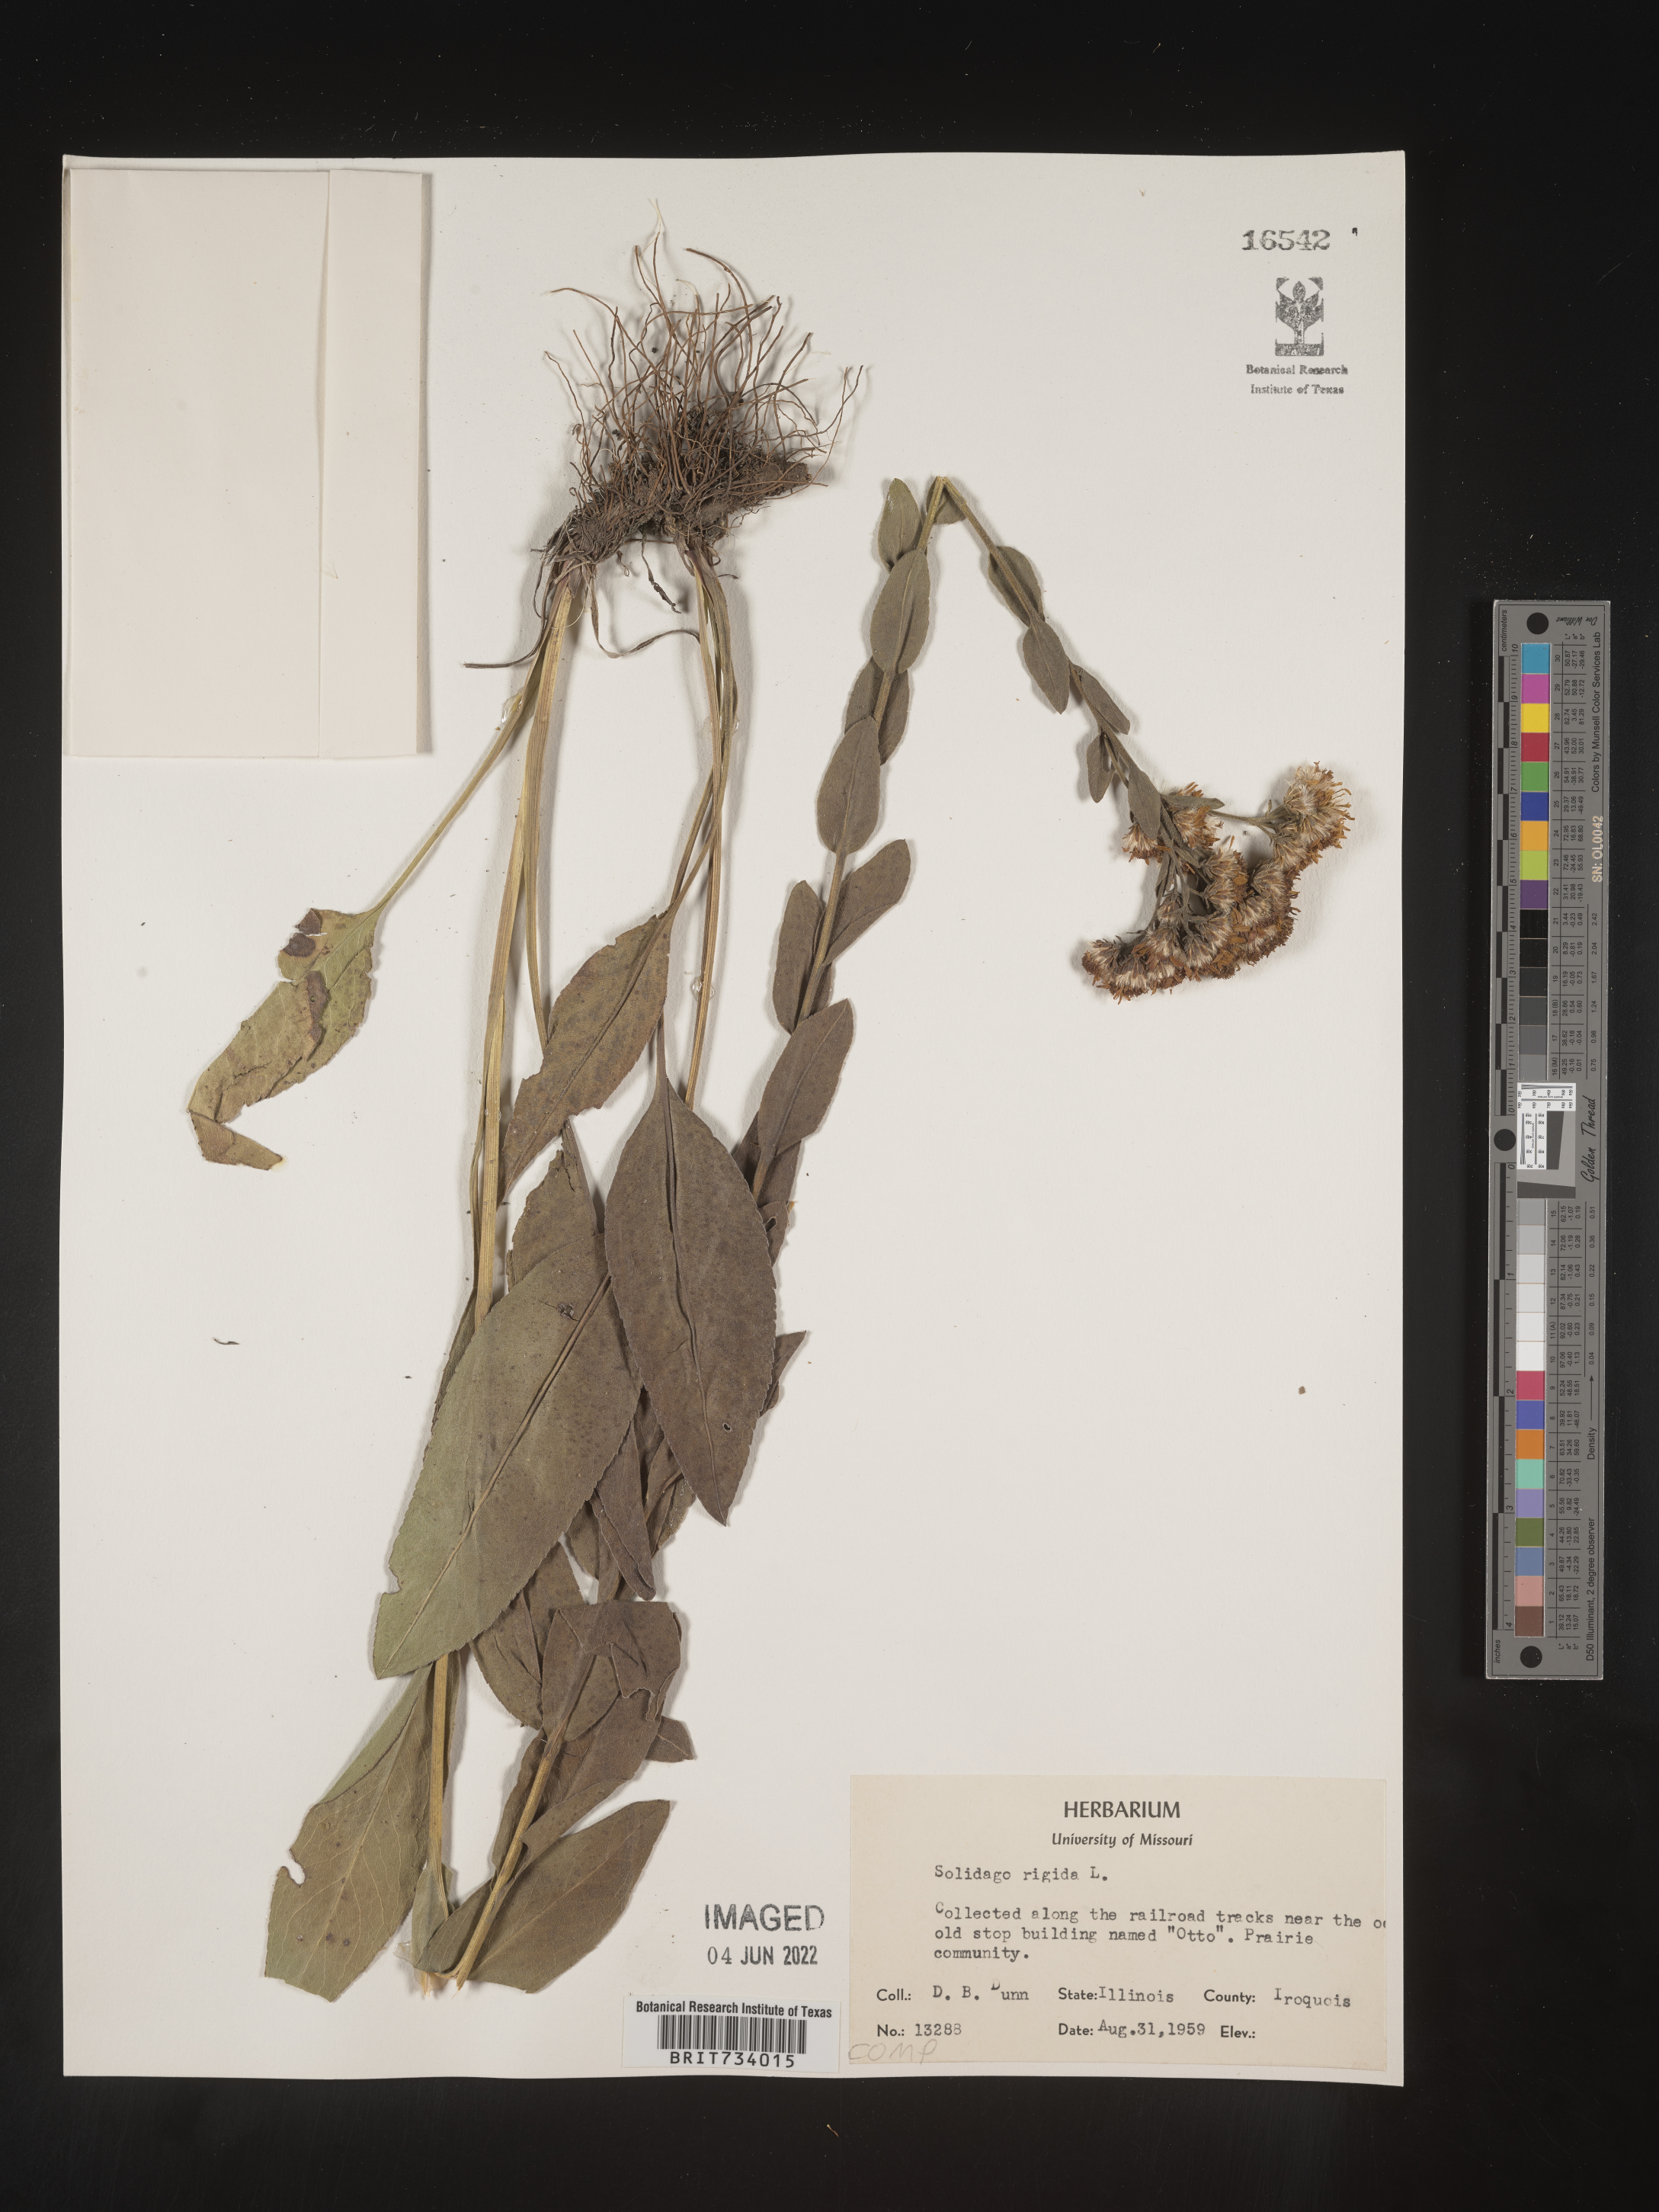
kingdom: Plantae
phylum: Tracheophyta
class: Magnoliopsida
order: Asterales
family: Asteraceae
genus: Solidago
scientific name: Solidago rigida
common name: Rigid goldenrod
